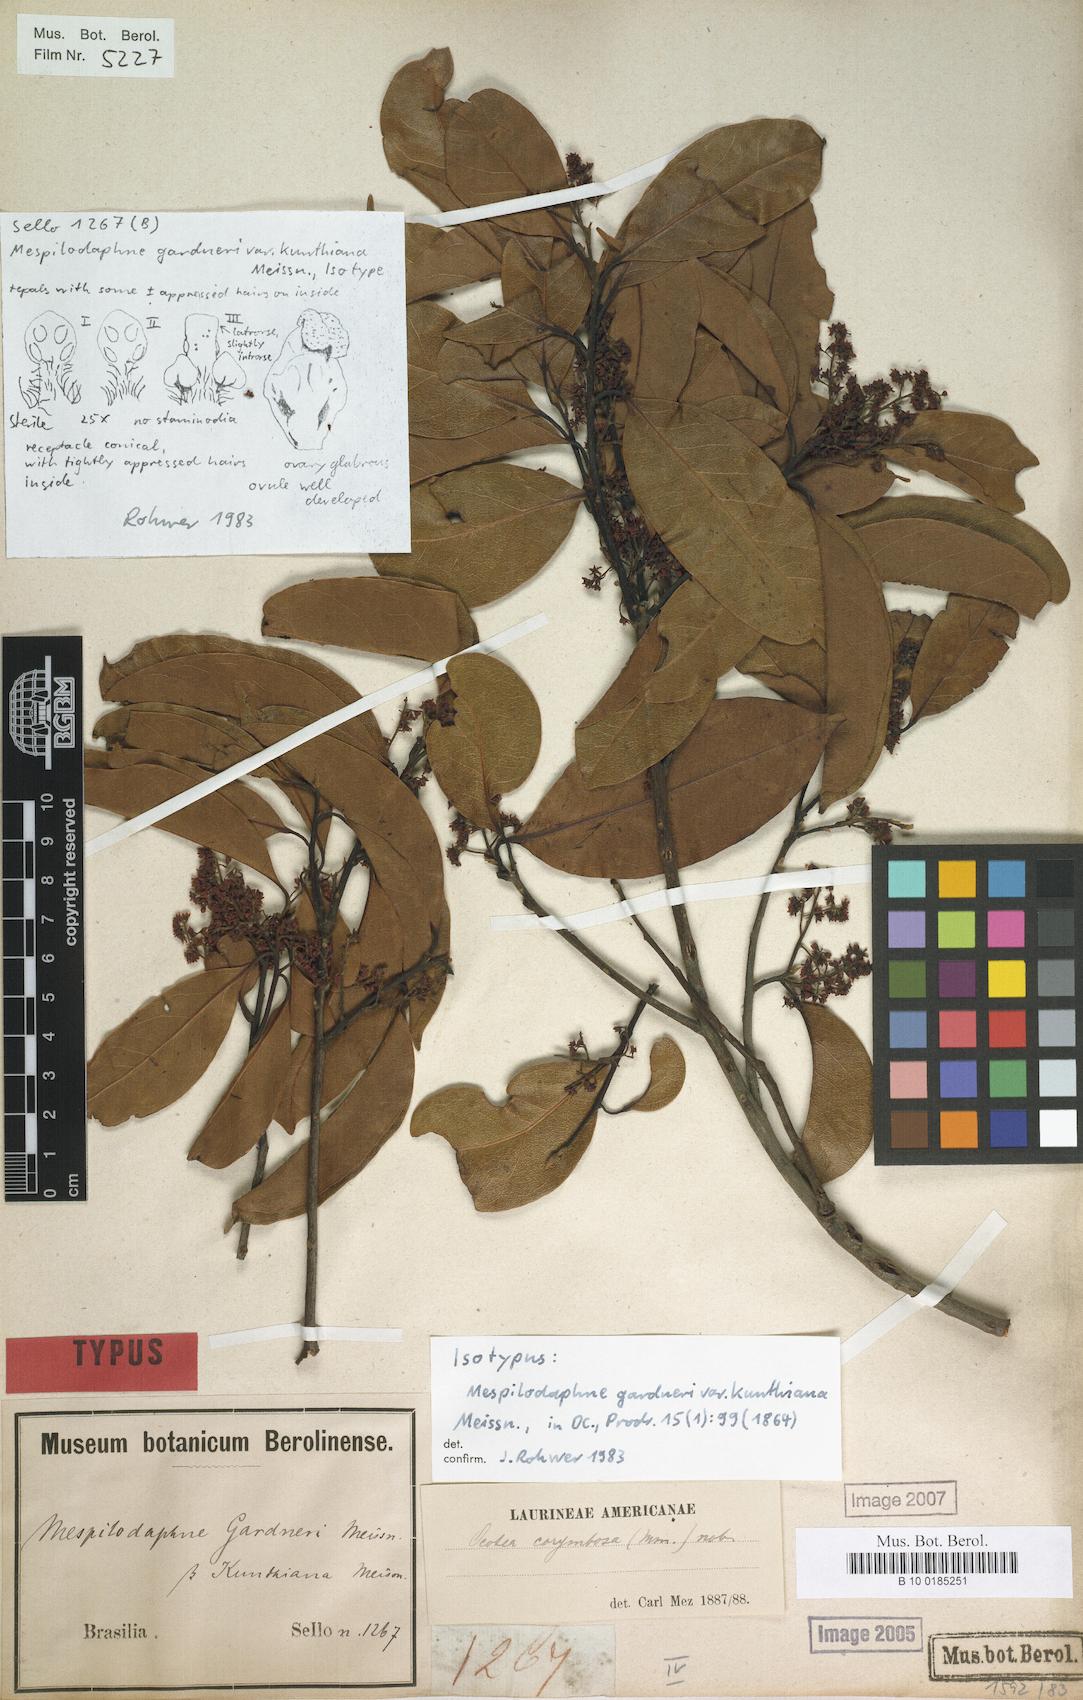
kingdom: Plantae
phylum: Tracheophyta
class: Magnoliopsida
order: Laurales
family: Lauraceae
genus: Mespilodaphne
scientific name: Mespilodaphne corymbosa
